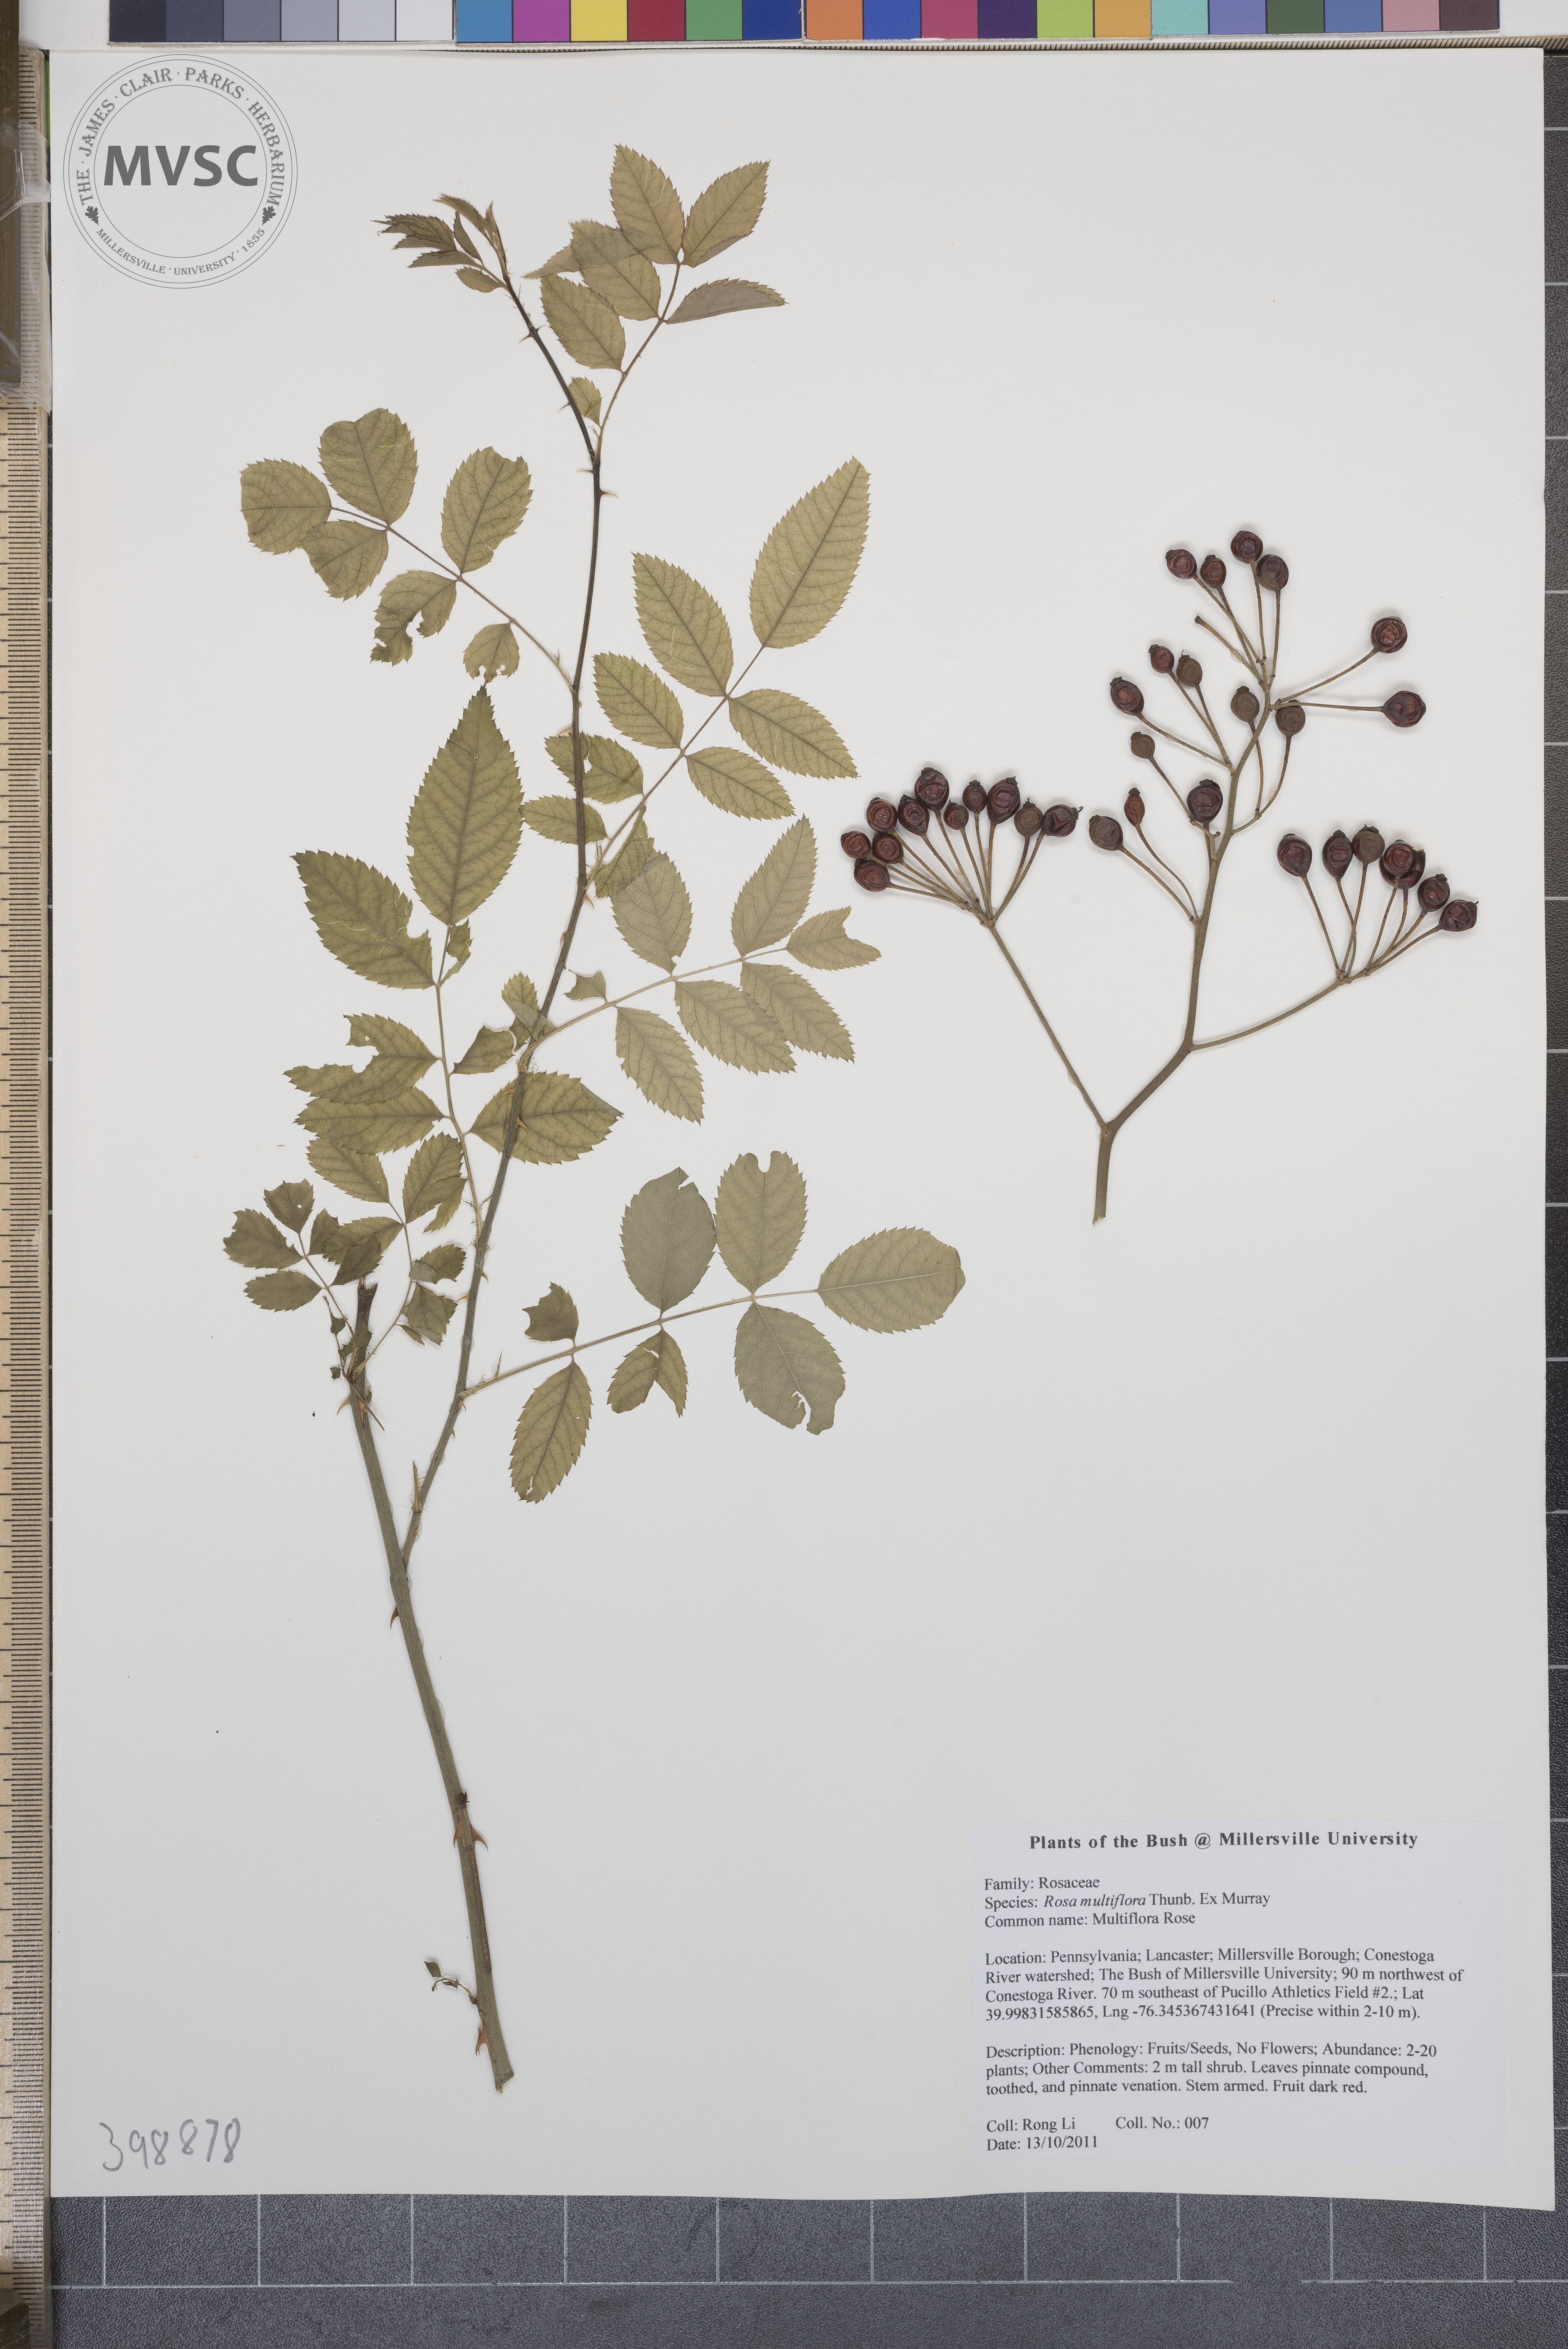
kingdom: Plantae
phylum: Tracheophyta
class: Magnoliopsida
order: Rosales
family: Rosaceae
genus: Rosa
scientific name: Rosa multiflora
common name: Multiflora rose
